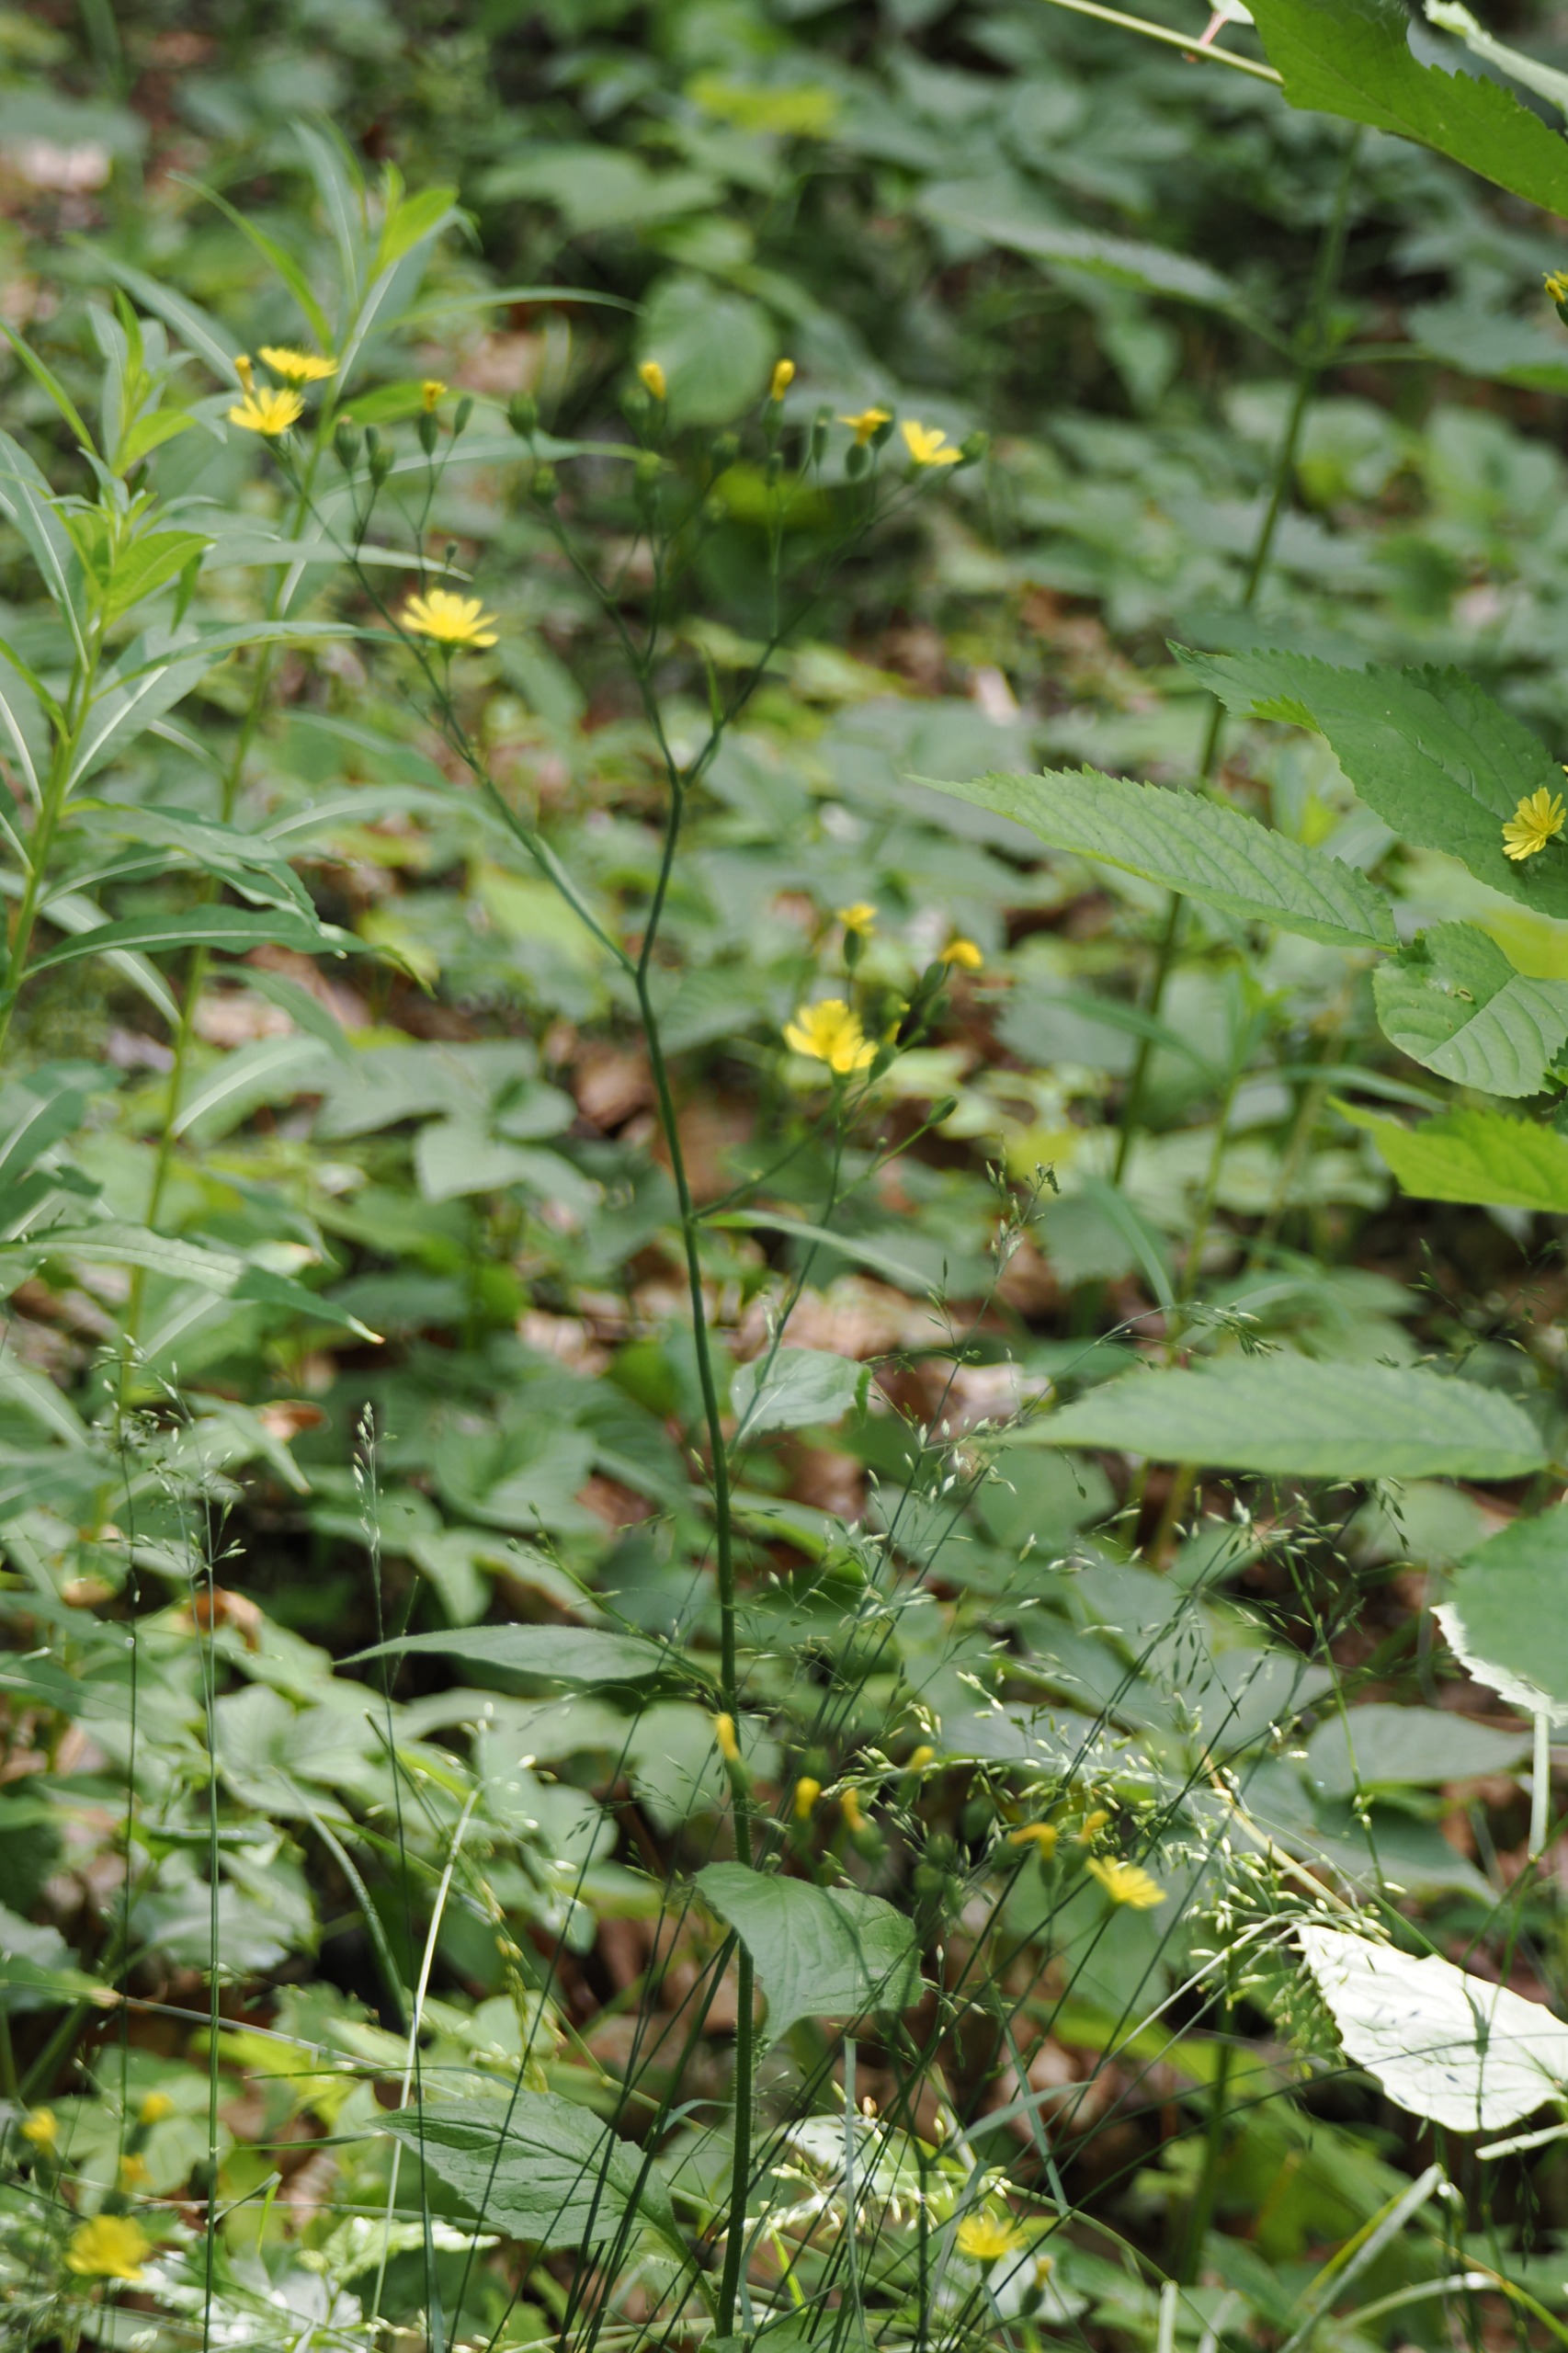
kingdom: Plantae
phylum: Tracheophyta
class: Magnoliopsida
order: Asterales
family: Asteraceae
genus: Lapsana
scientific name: Lapsana communis
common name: Haremad
